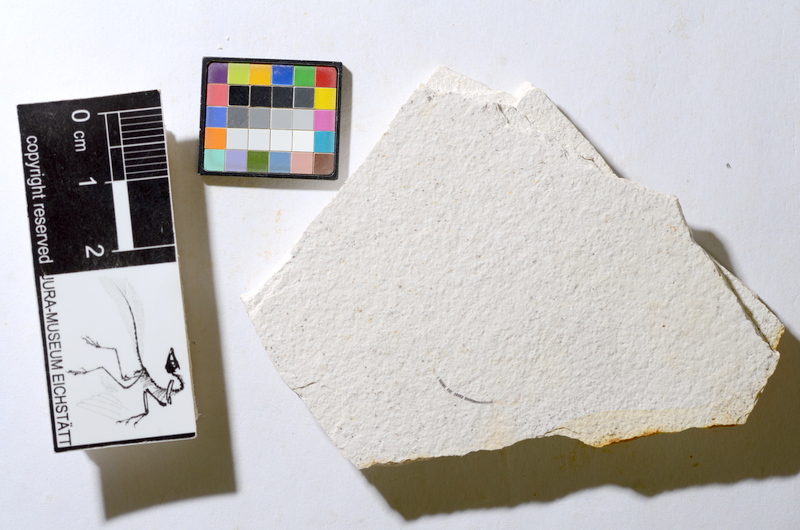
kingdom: Animalia
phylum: Chordata
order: Salmoniformes
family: Orthogonikleithridae
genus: Orthogonikleithrus
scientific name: Orthogonikleithrus hoelli
